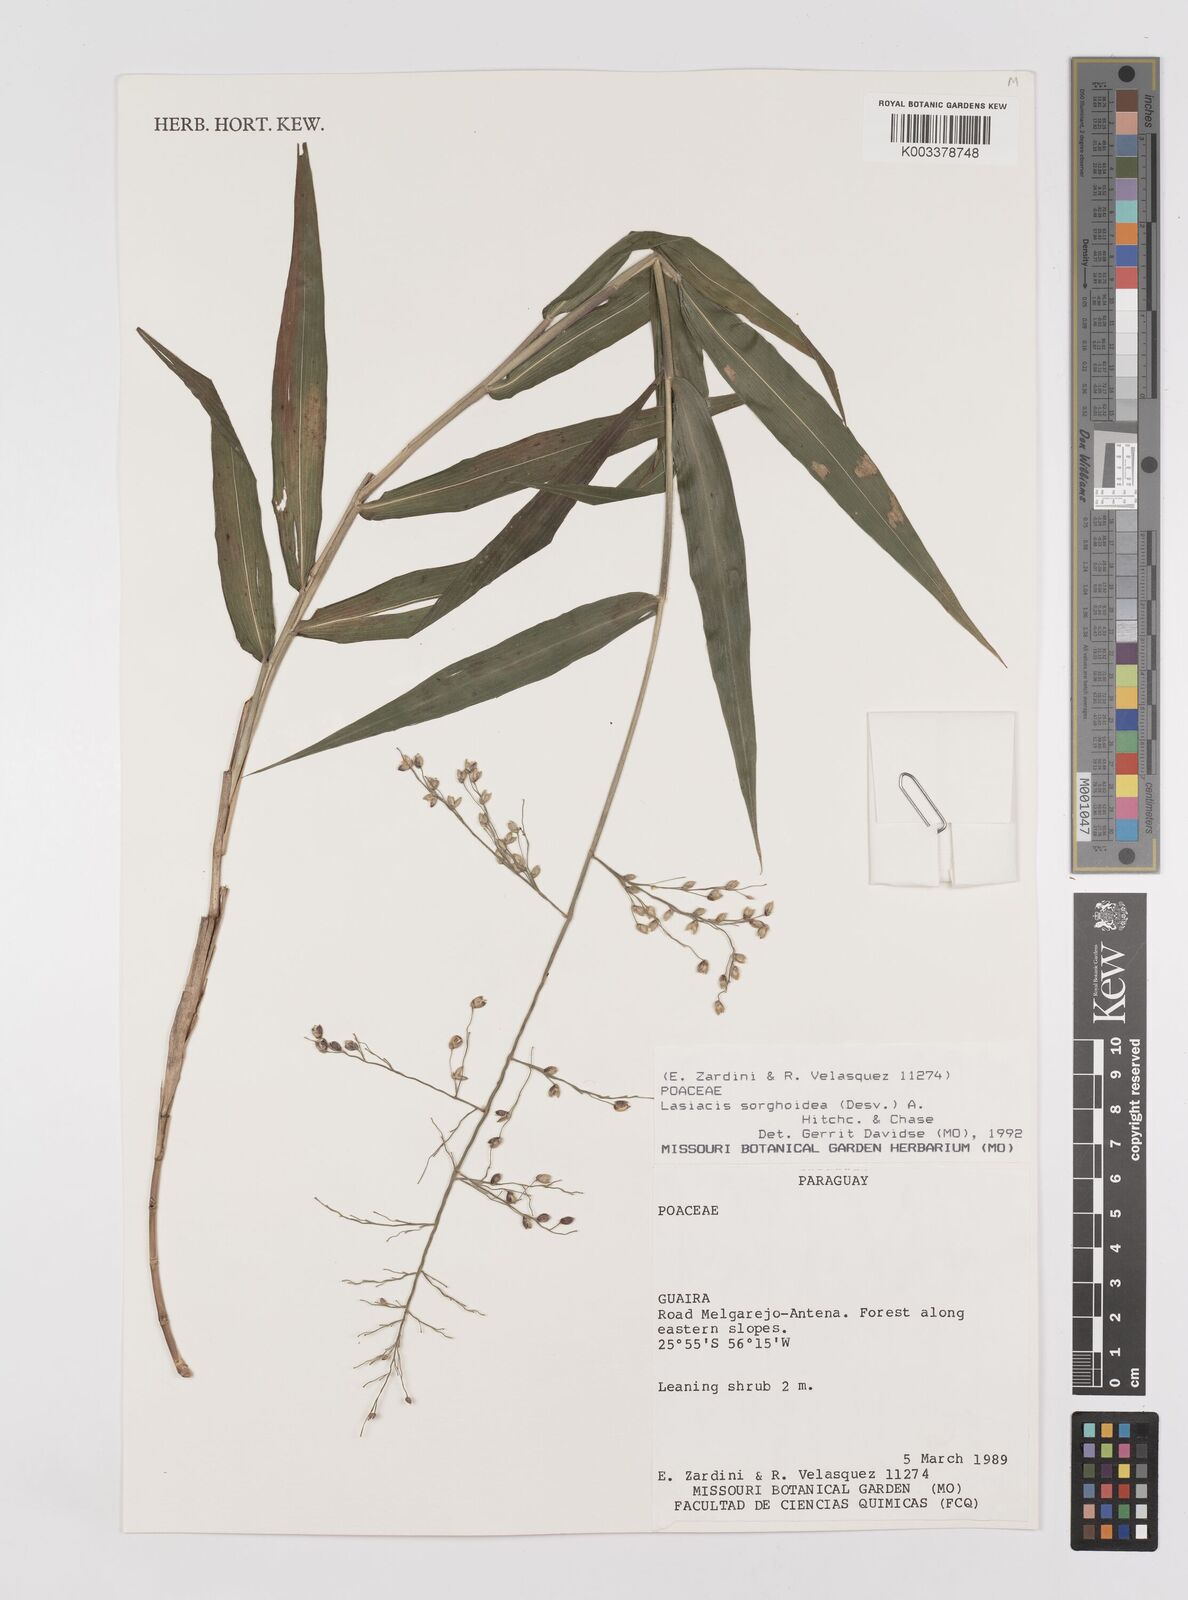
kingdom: Plantae
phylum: Tracheophyta
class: Liliopsida
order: Poales
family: Poaceae
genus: Lasiacis
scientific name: Lasiacis maculata
